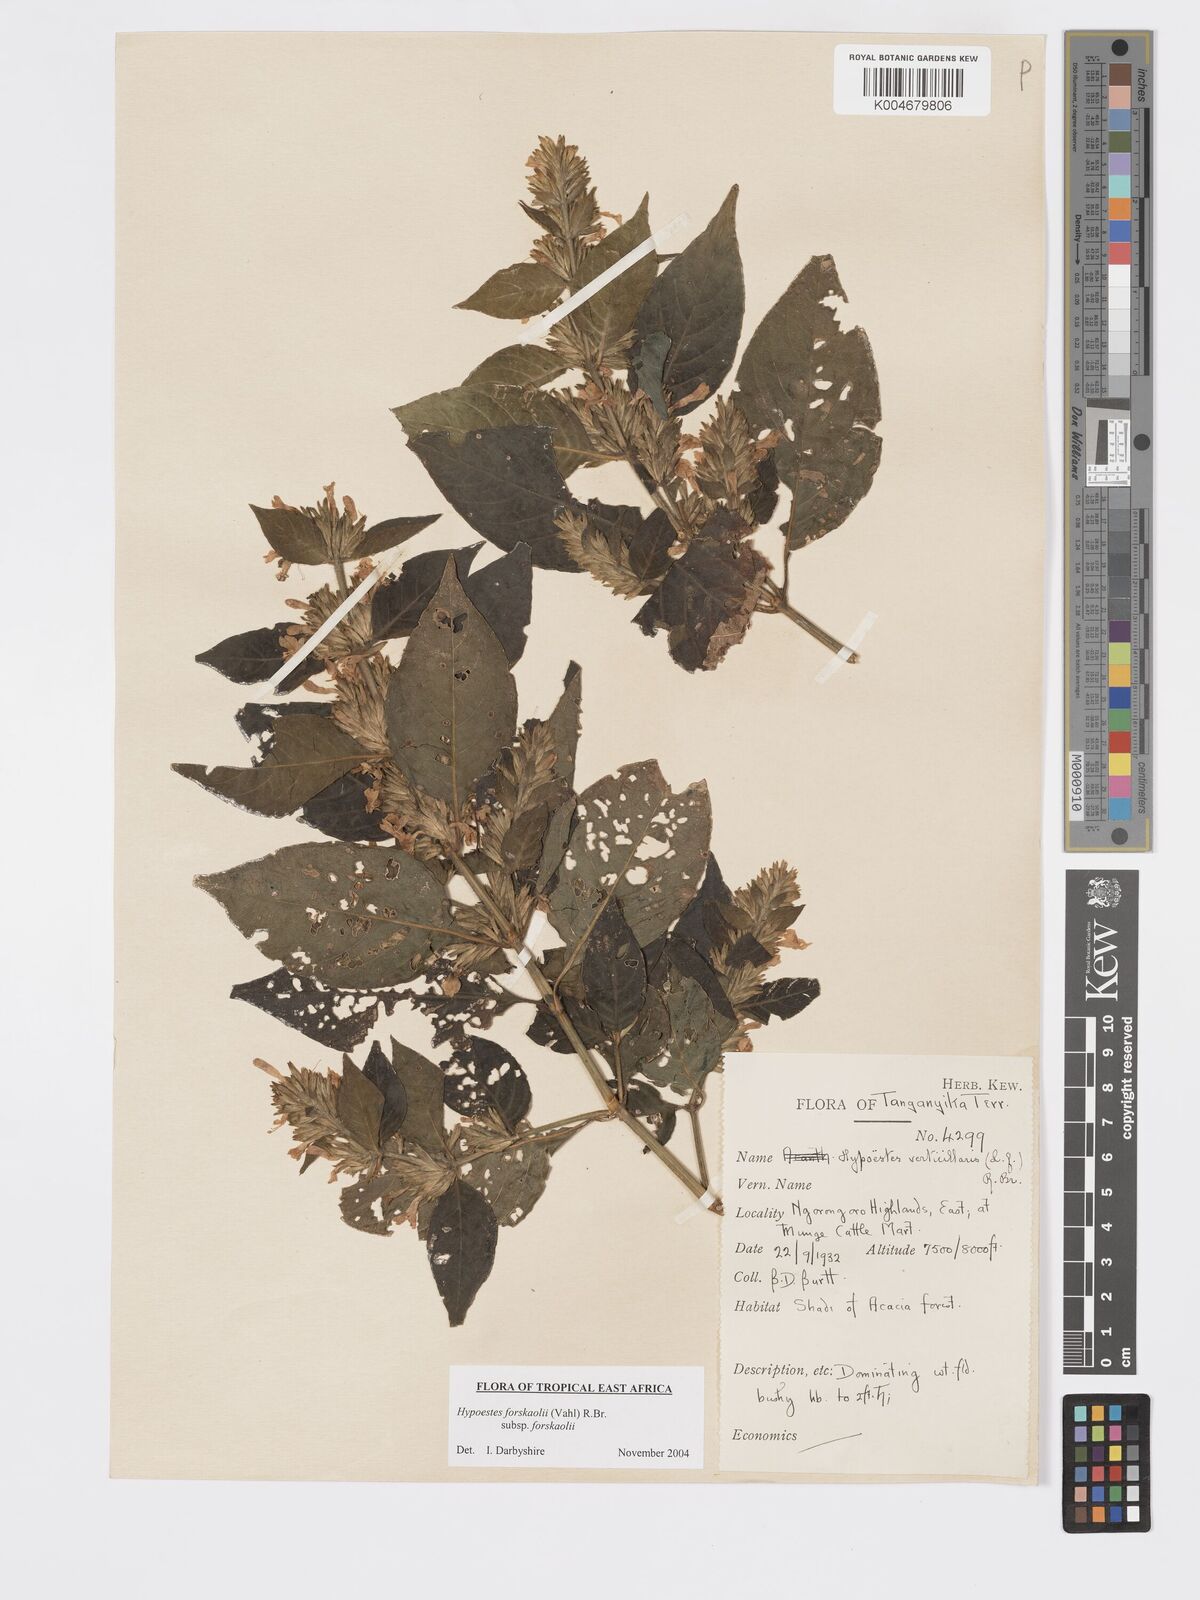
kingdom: Plantae
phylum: Tracheophyta
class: Magnoliopsida
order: Lamiales
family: Acanthaceae
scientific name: Acanthaceae
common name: Acanthaceae
